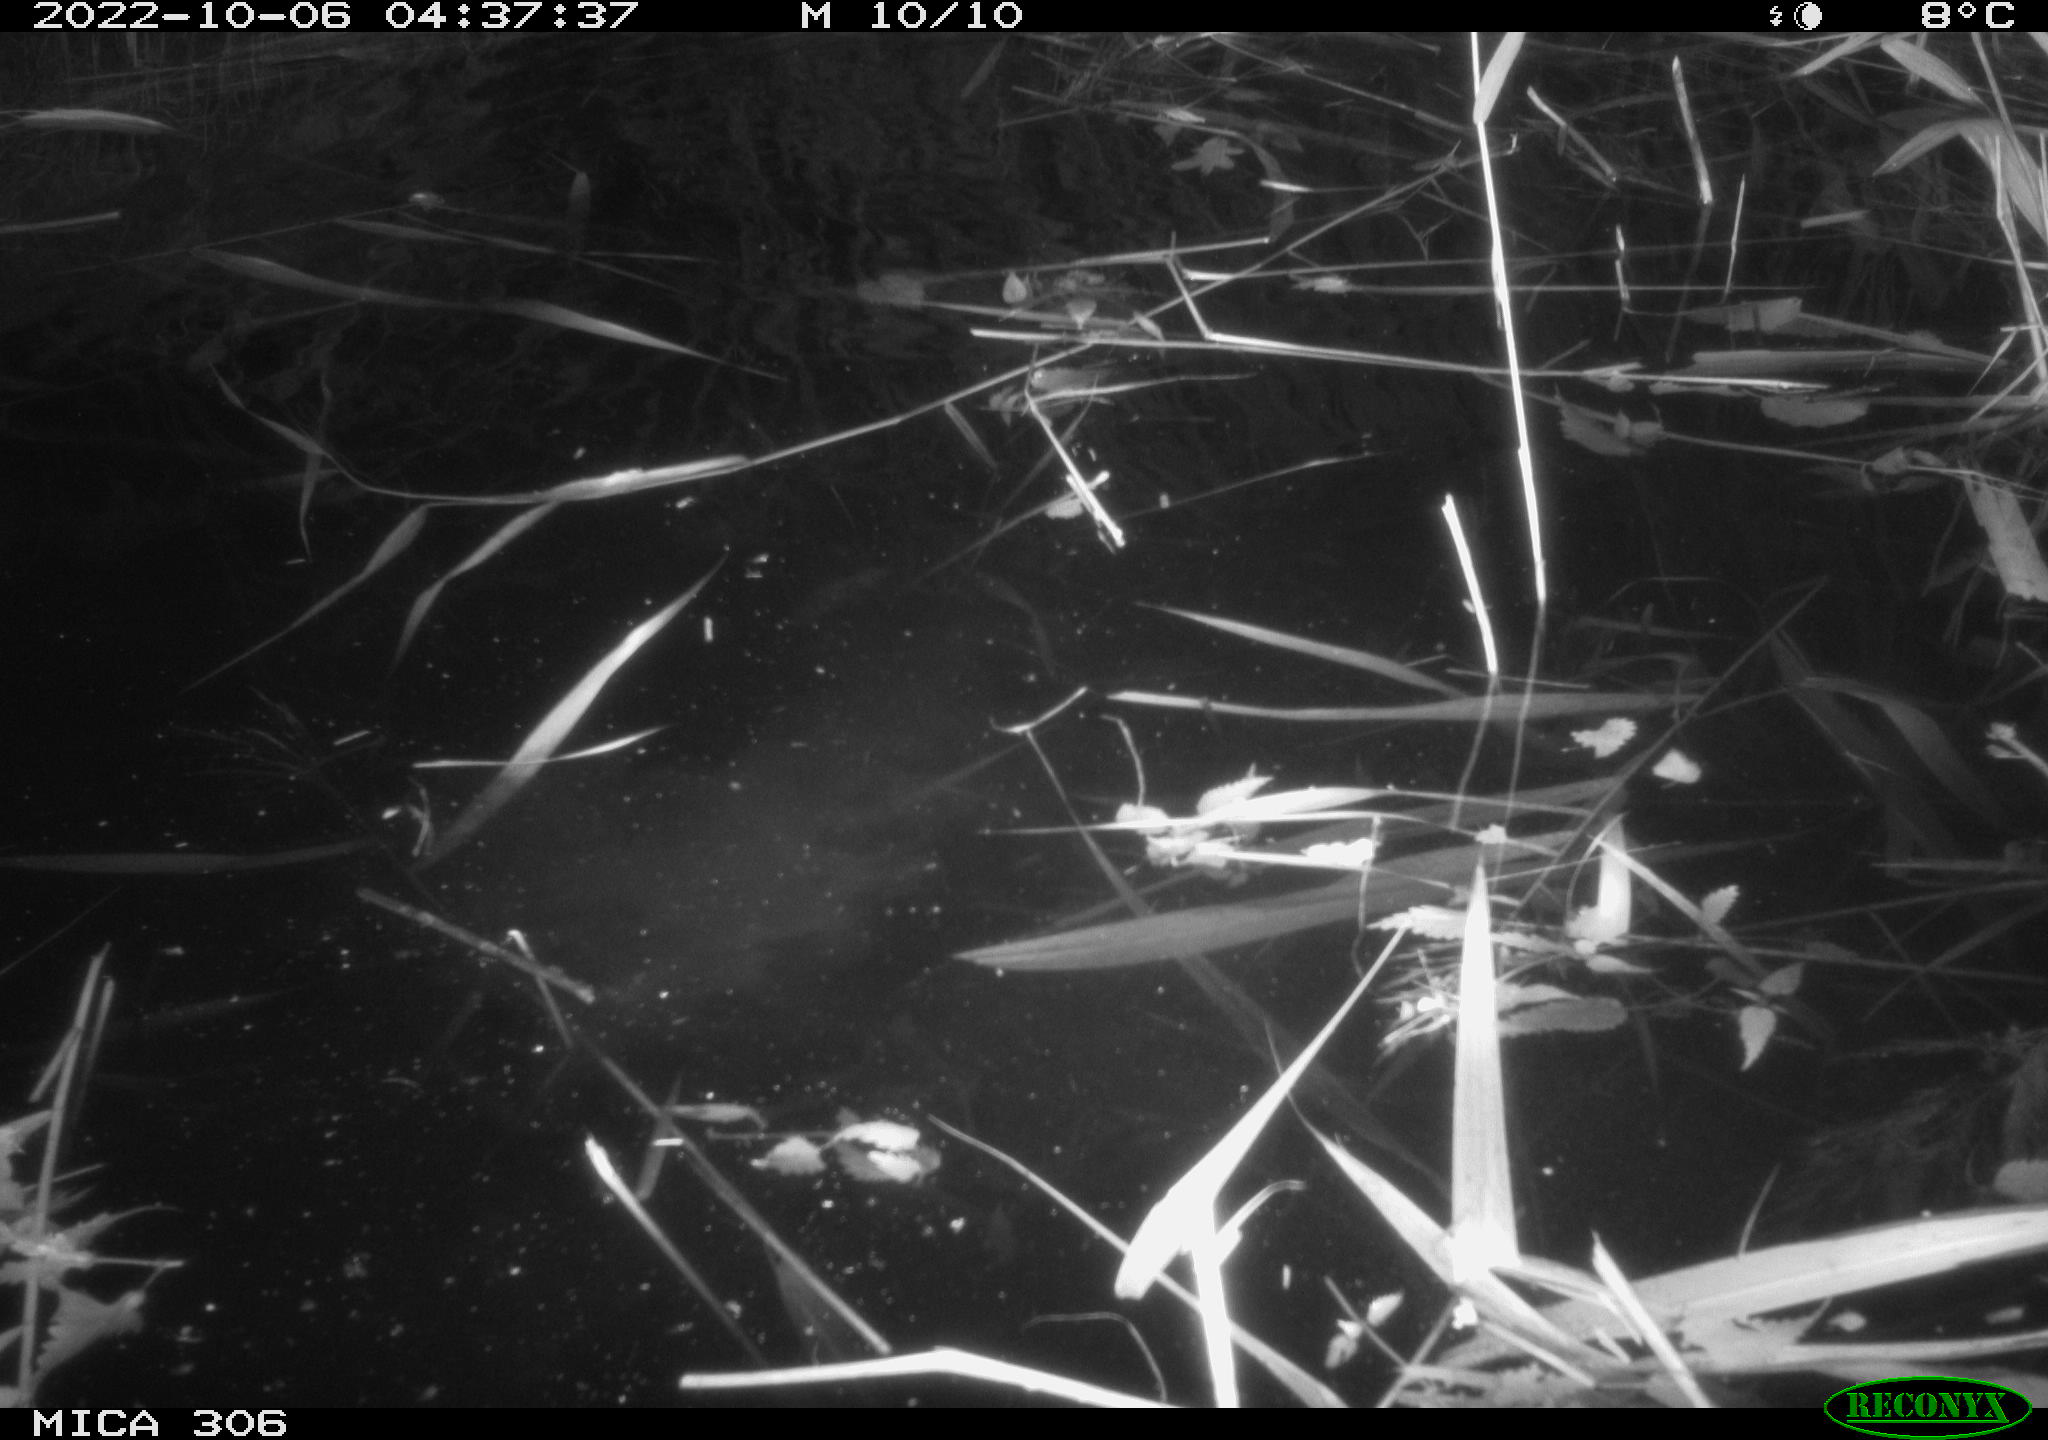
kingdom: Animalia
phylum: Chordata
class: Mammalia
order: Rodentia
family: Muridae
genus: Rattus
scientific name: Rattus norvegicus
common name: Brown rat
